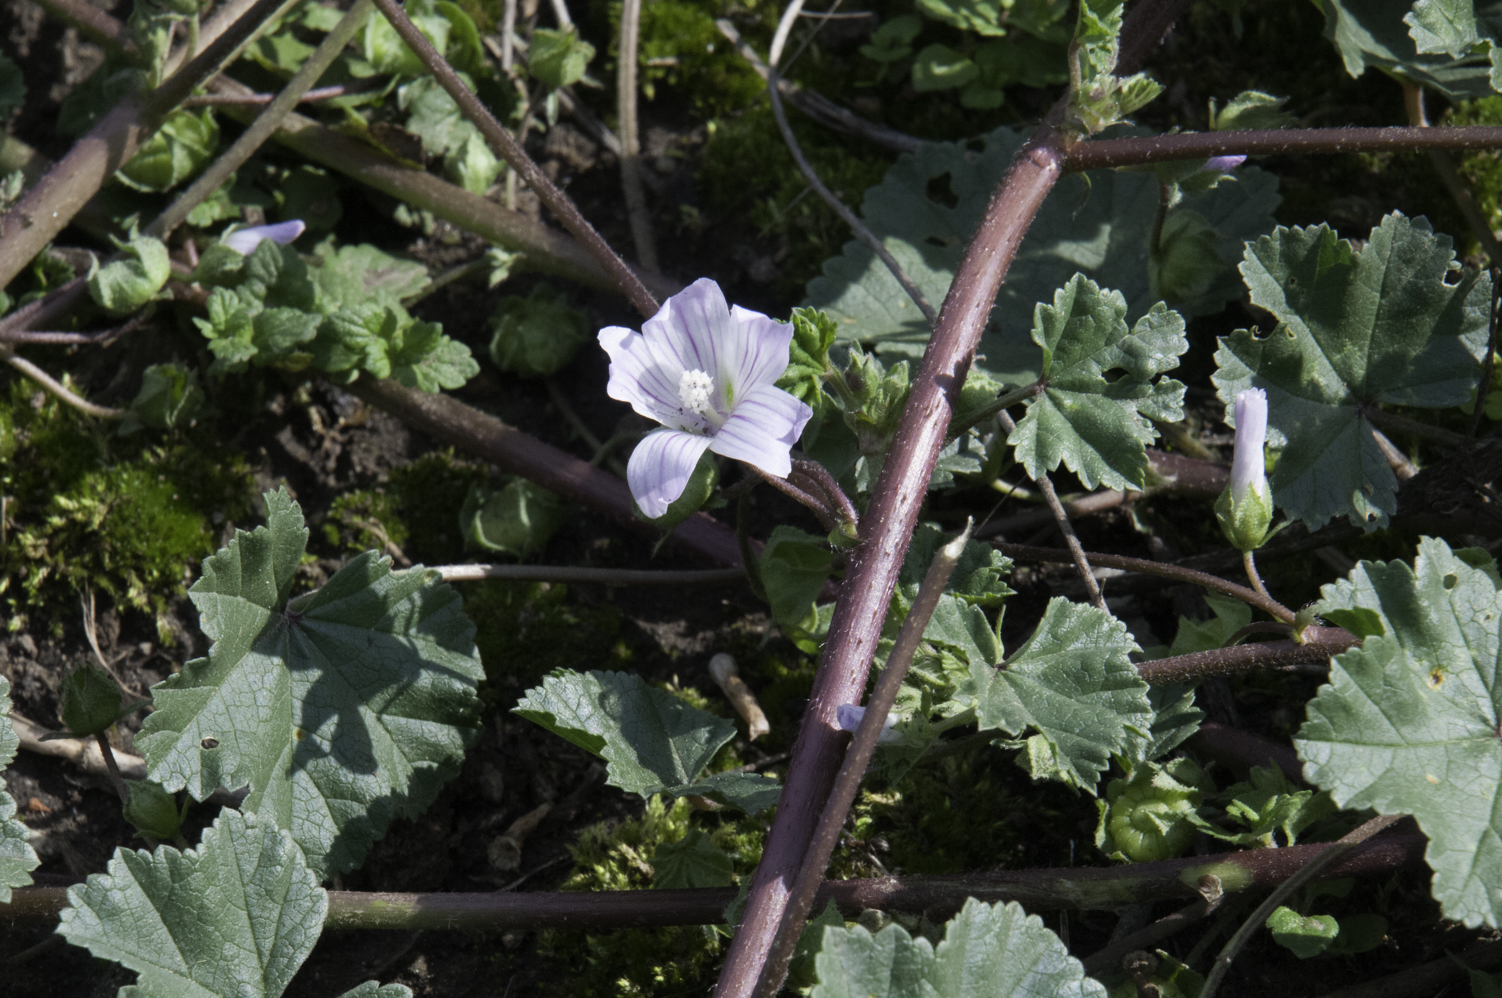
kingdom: Plantae
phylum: Tracheophyta
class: Magnoliopsida
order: Malvales
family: Malvaceae
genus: Malva
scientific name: Malva neglecta
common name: Common mallow
